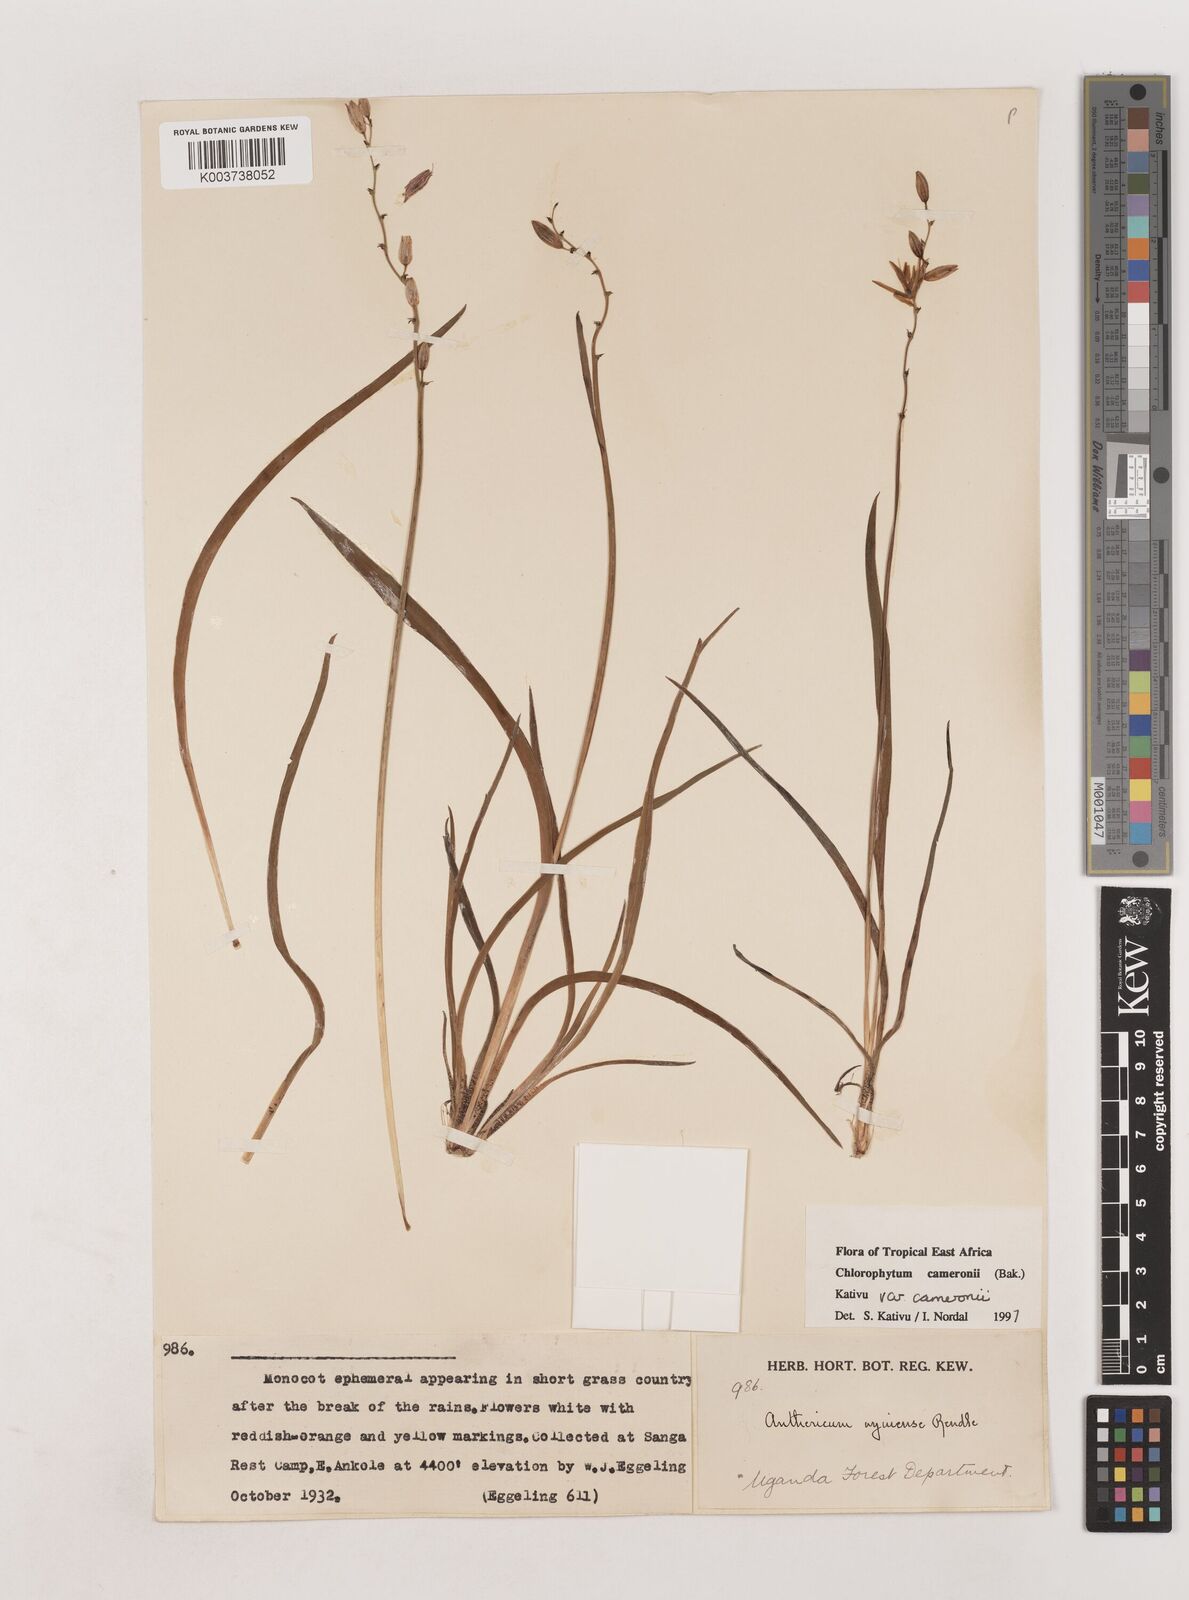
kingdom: Plantae
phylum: Tracheophyta
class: Liliopsida
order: Asparagales
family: Asparagaceae
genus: Chlorophytum
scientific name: Chlorophytum cameronii
